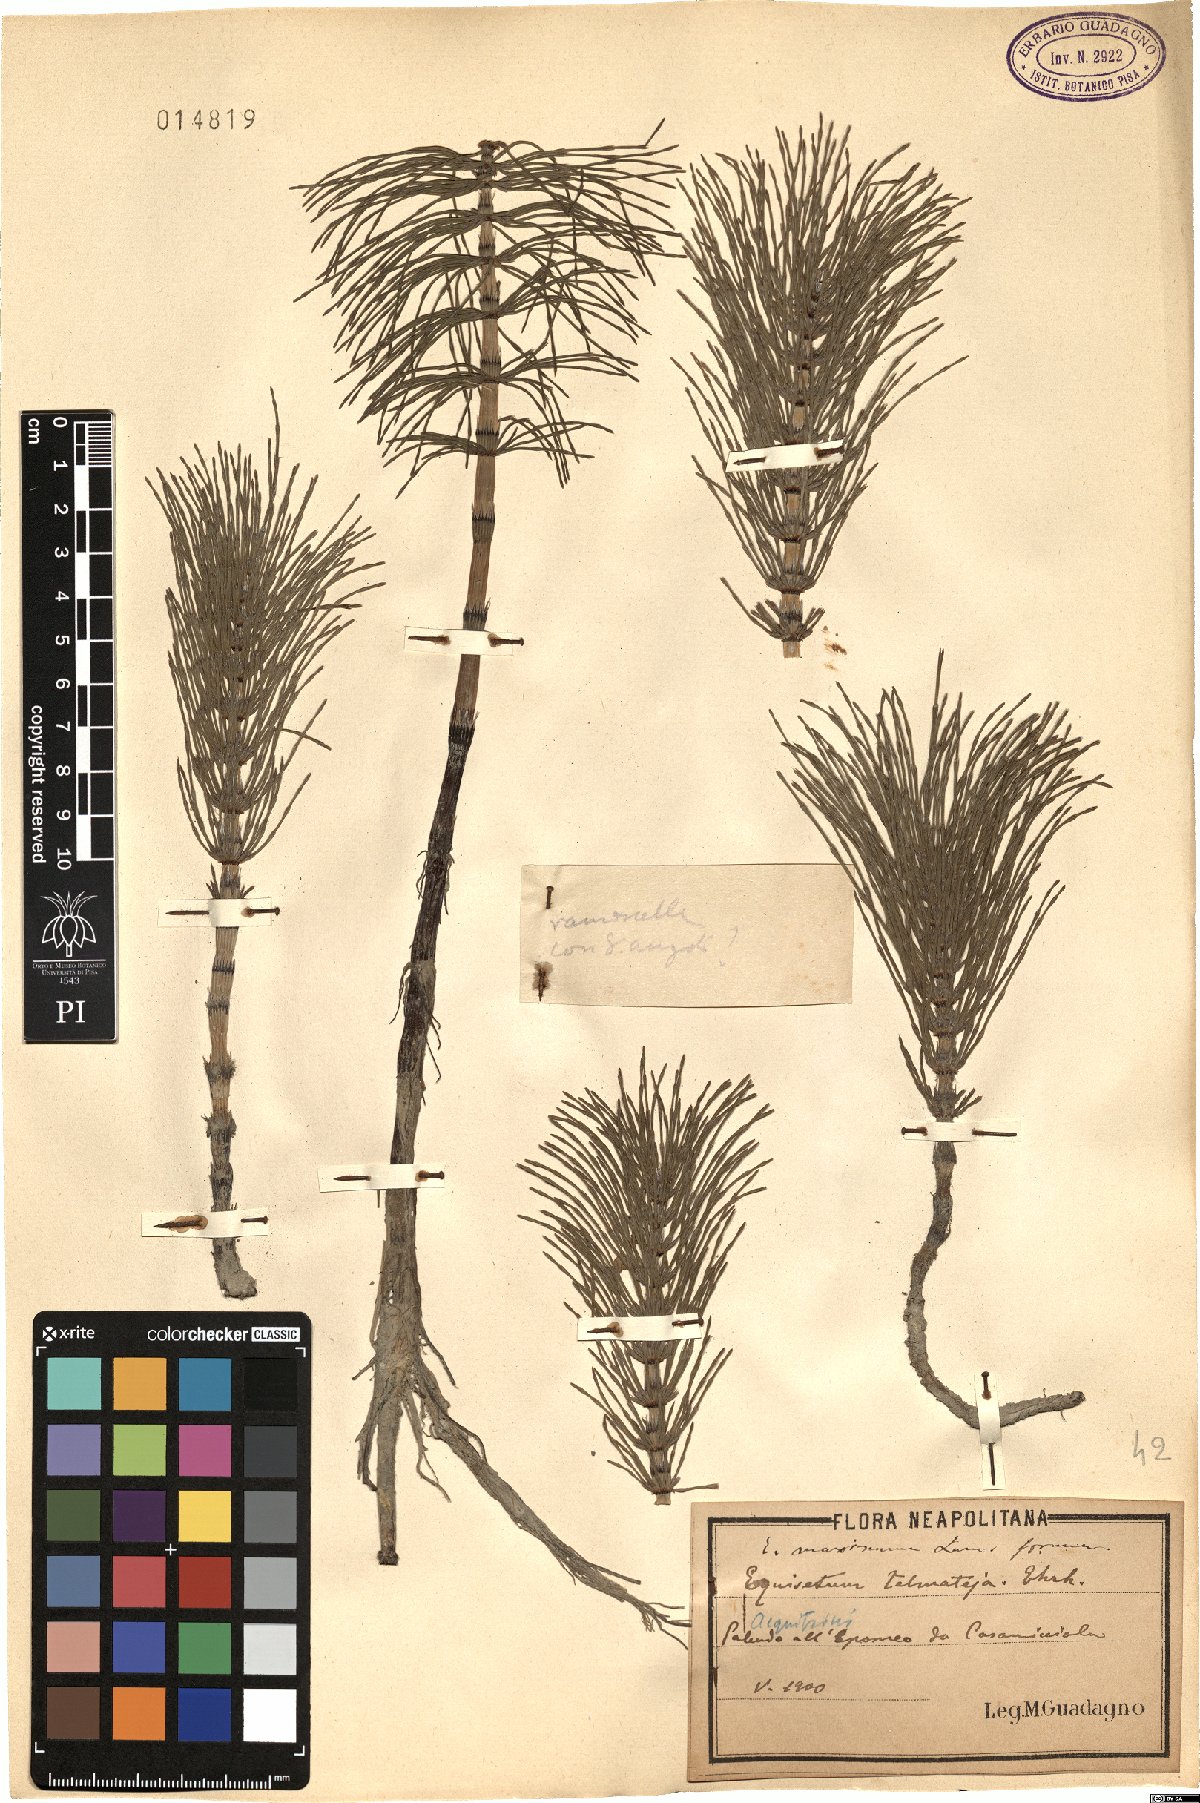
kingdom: Plantae
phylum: Tracheophyta
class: Polypodiopsida
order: Equisetales
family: Equisetaceae
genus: Equisetum
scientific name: Equisetum telmateia
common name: Great horsetail
